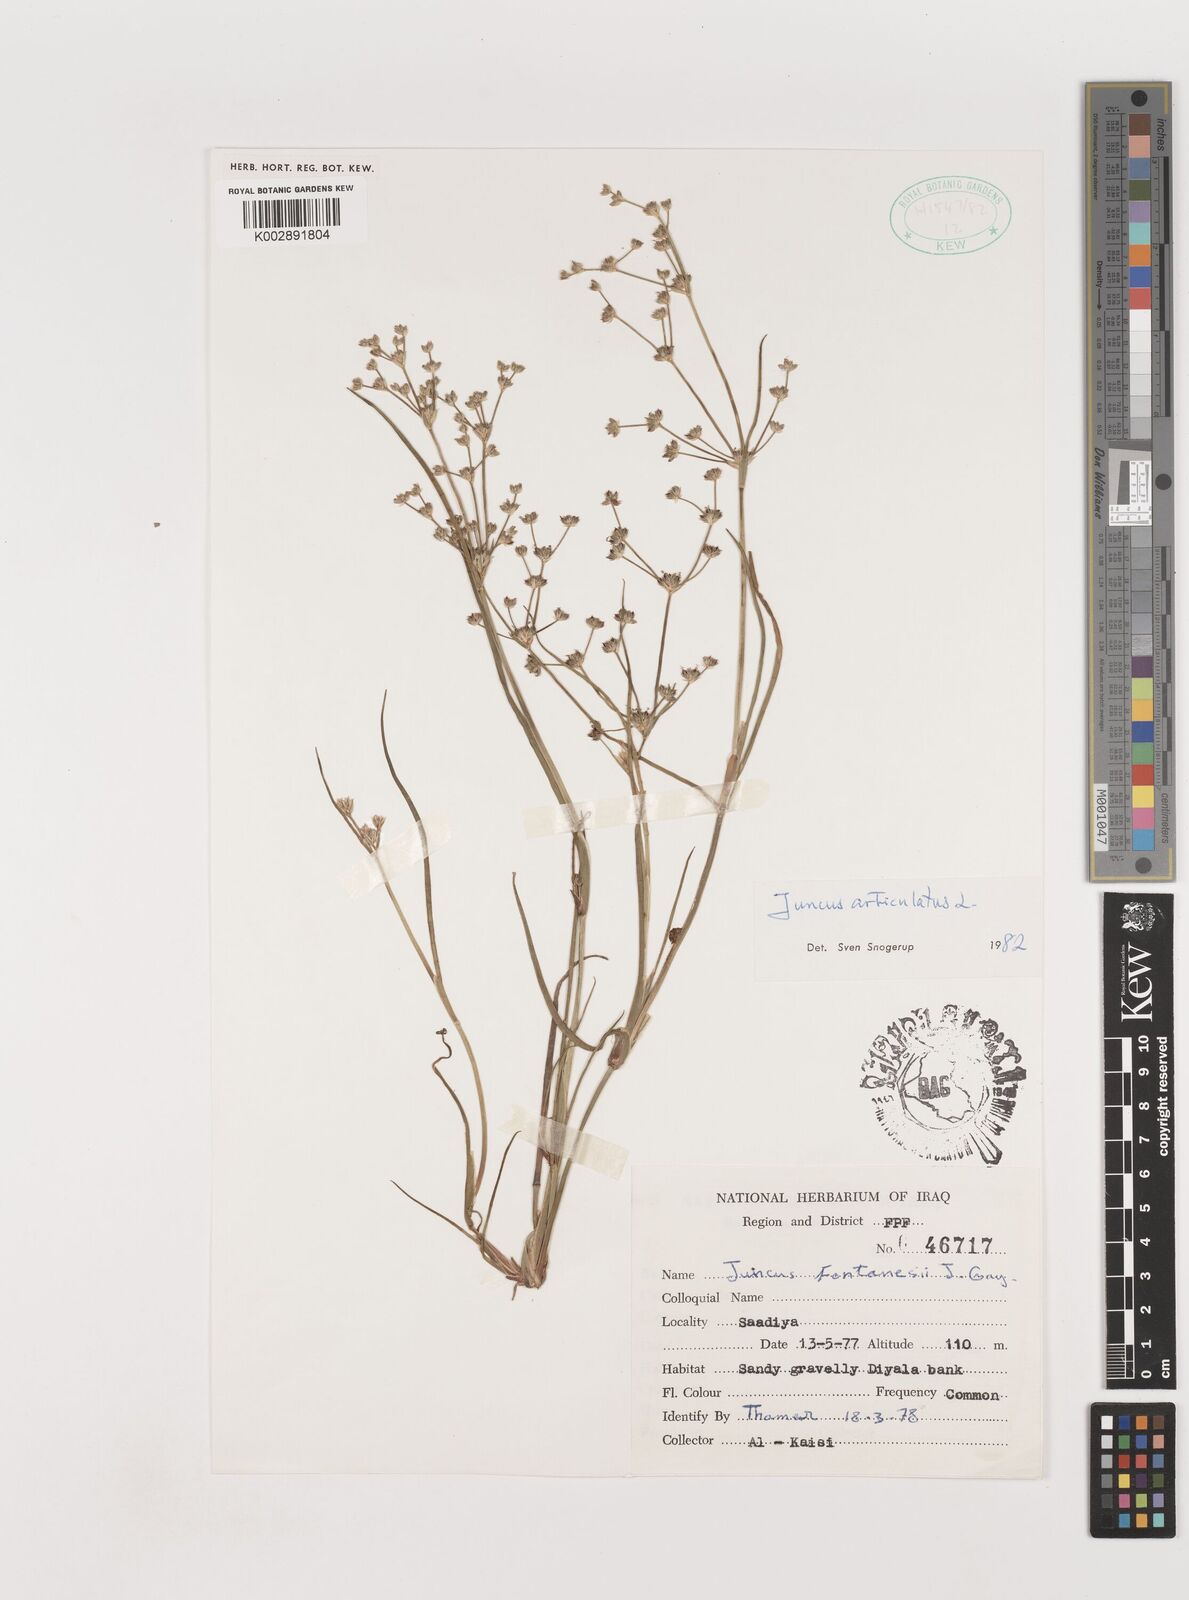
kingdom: Plantae
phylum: Tracheophyta
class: Liliopsida
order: Poales
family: Juncaceae
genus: Juncus
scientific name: Juncus articulatus
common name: Jointed rush
